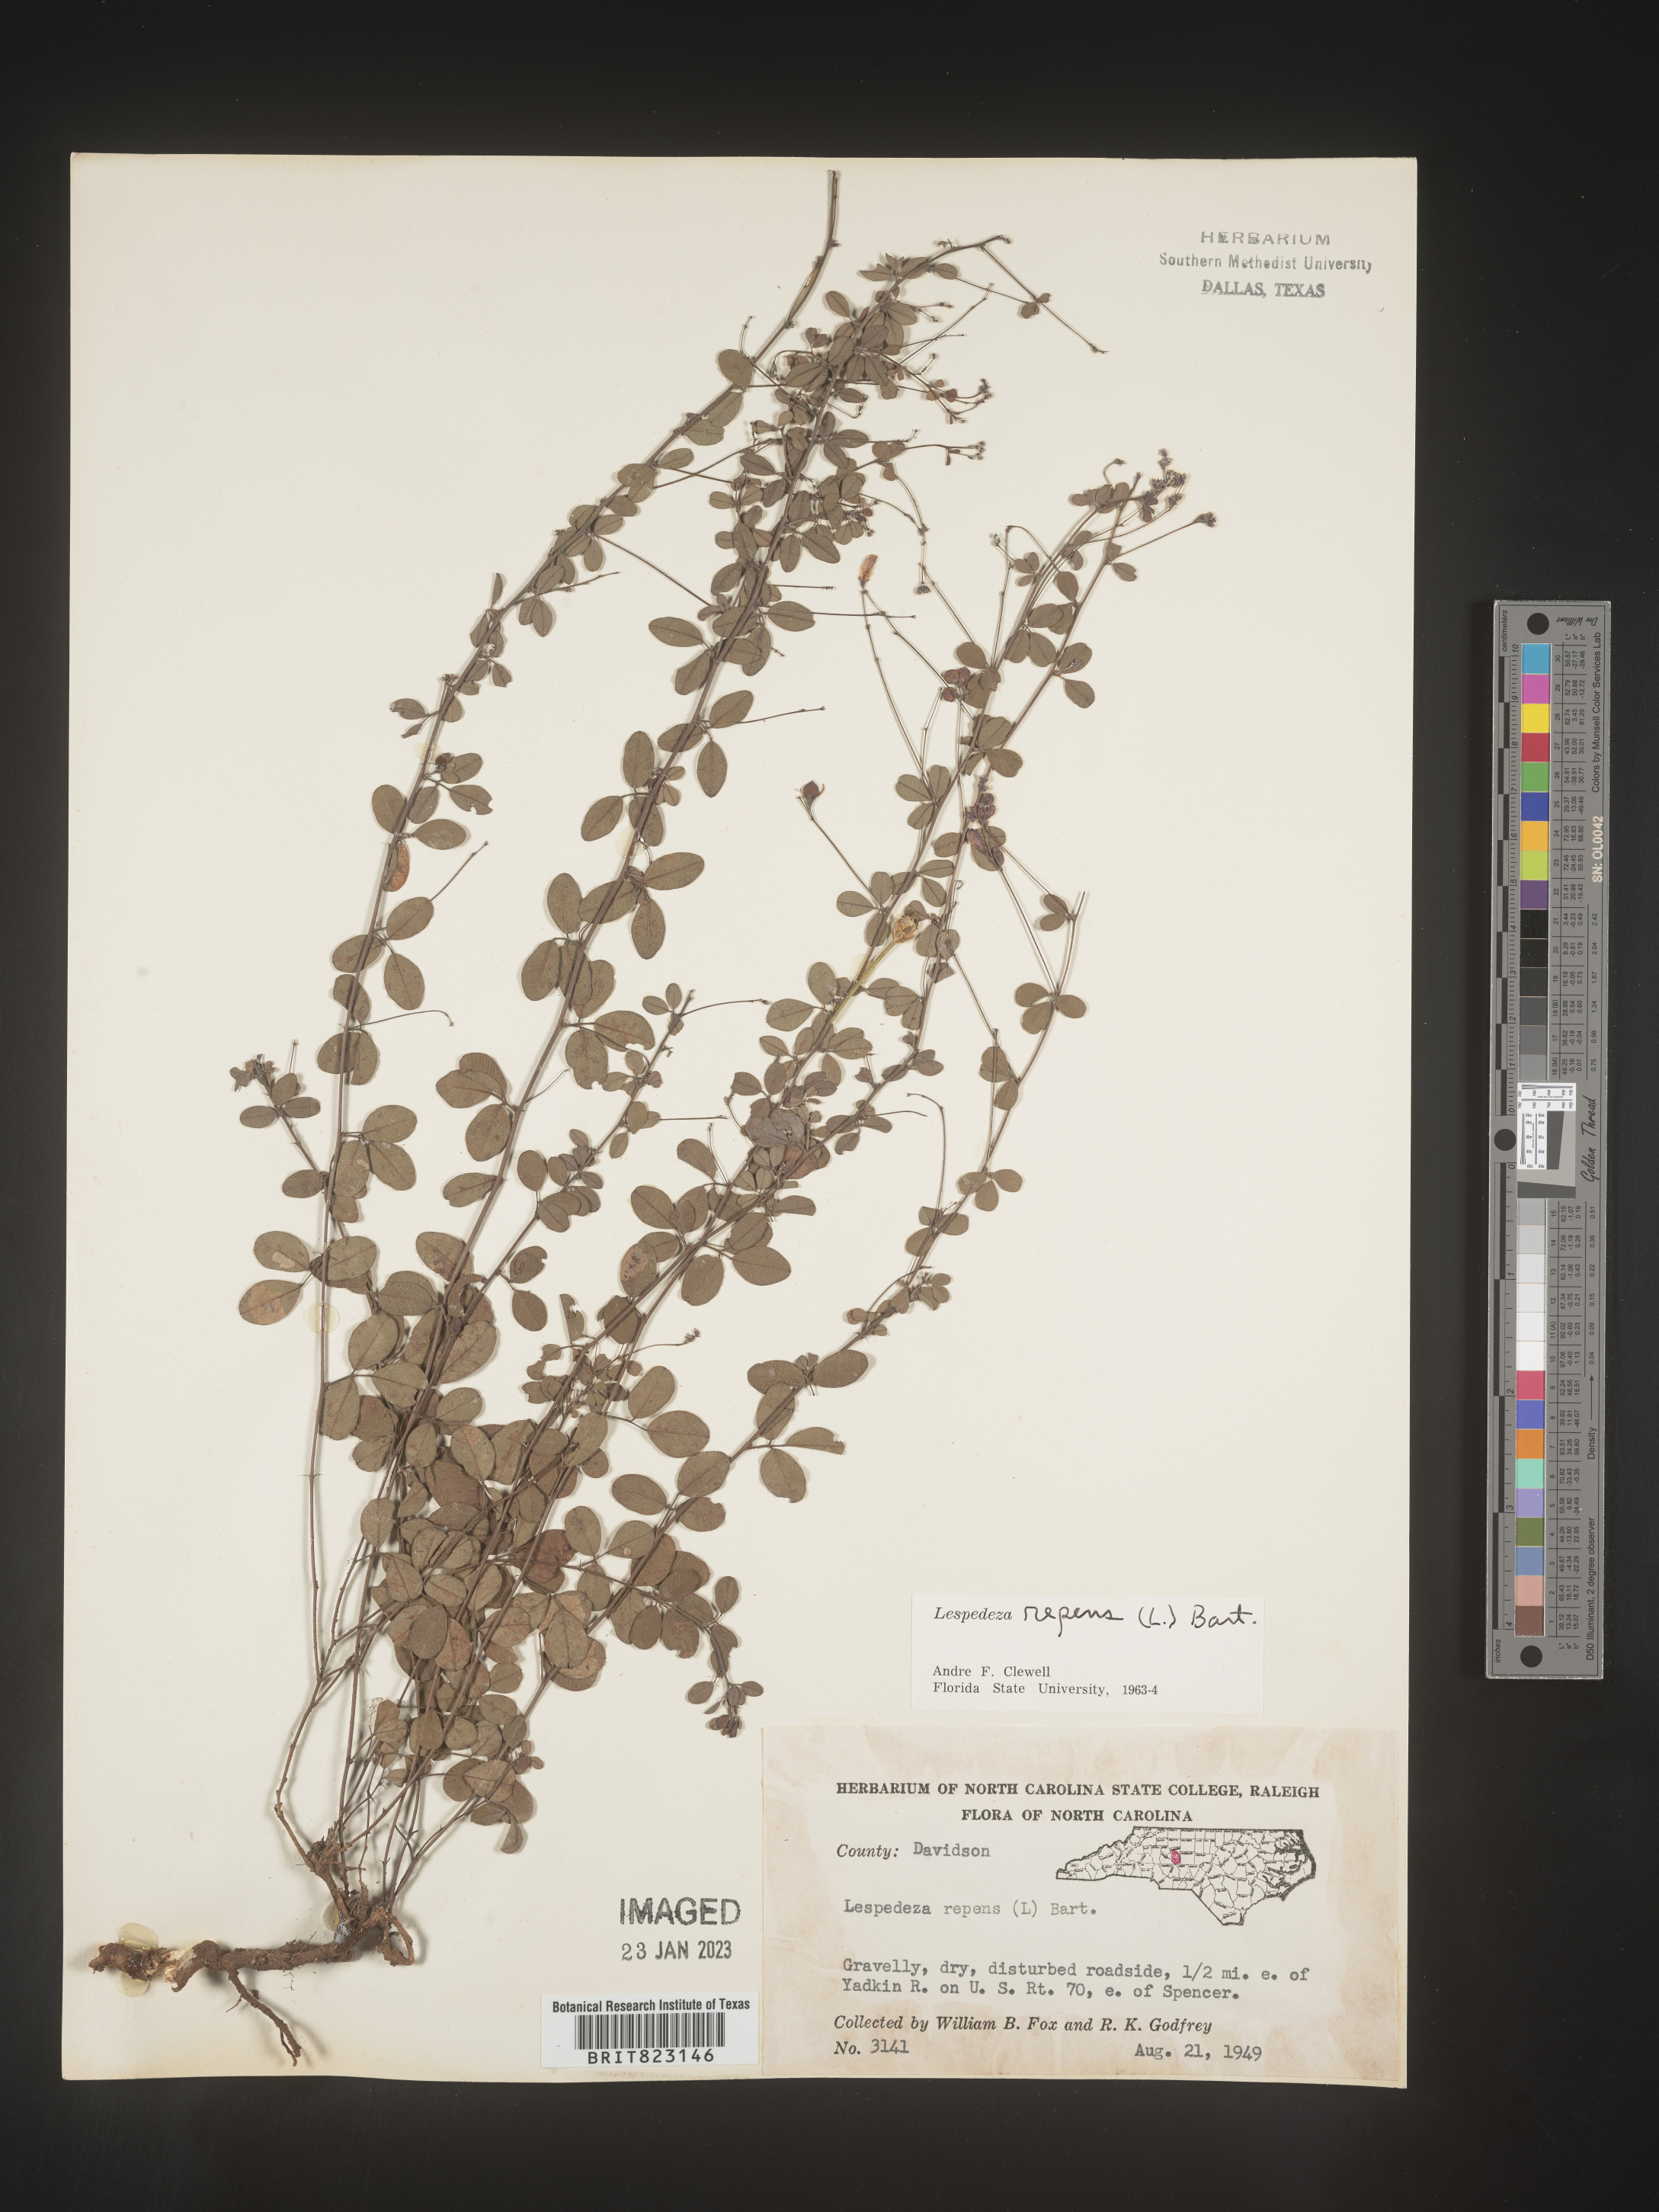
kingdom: Plantae
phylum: Tracheophyta
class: Magnoliopsida
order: Fabales
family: Fabaceae
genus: Lespedeza
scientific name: Lespedeza repens
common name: Creeping bush-clover
